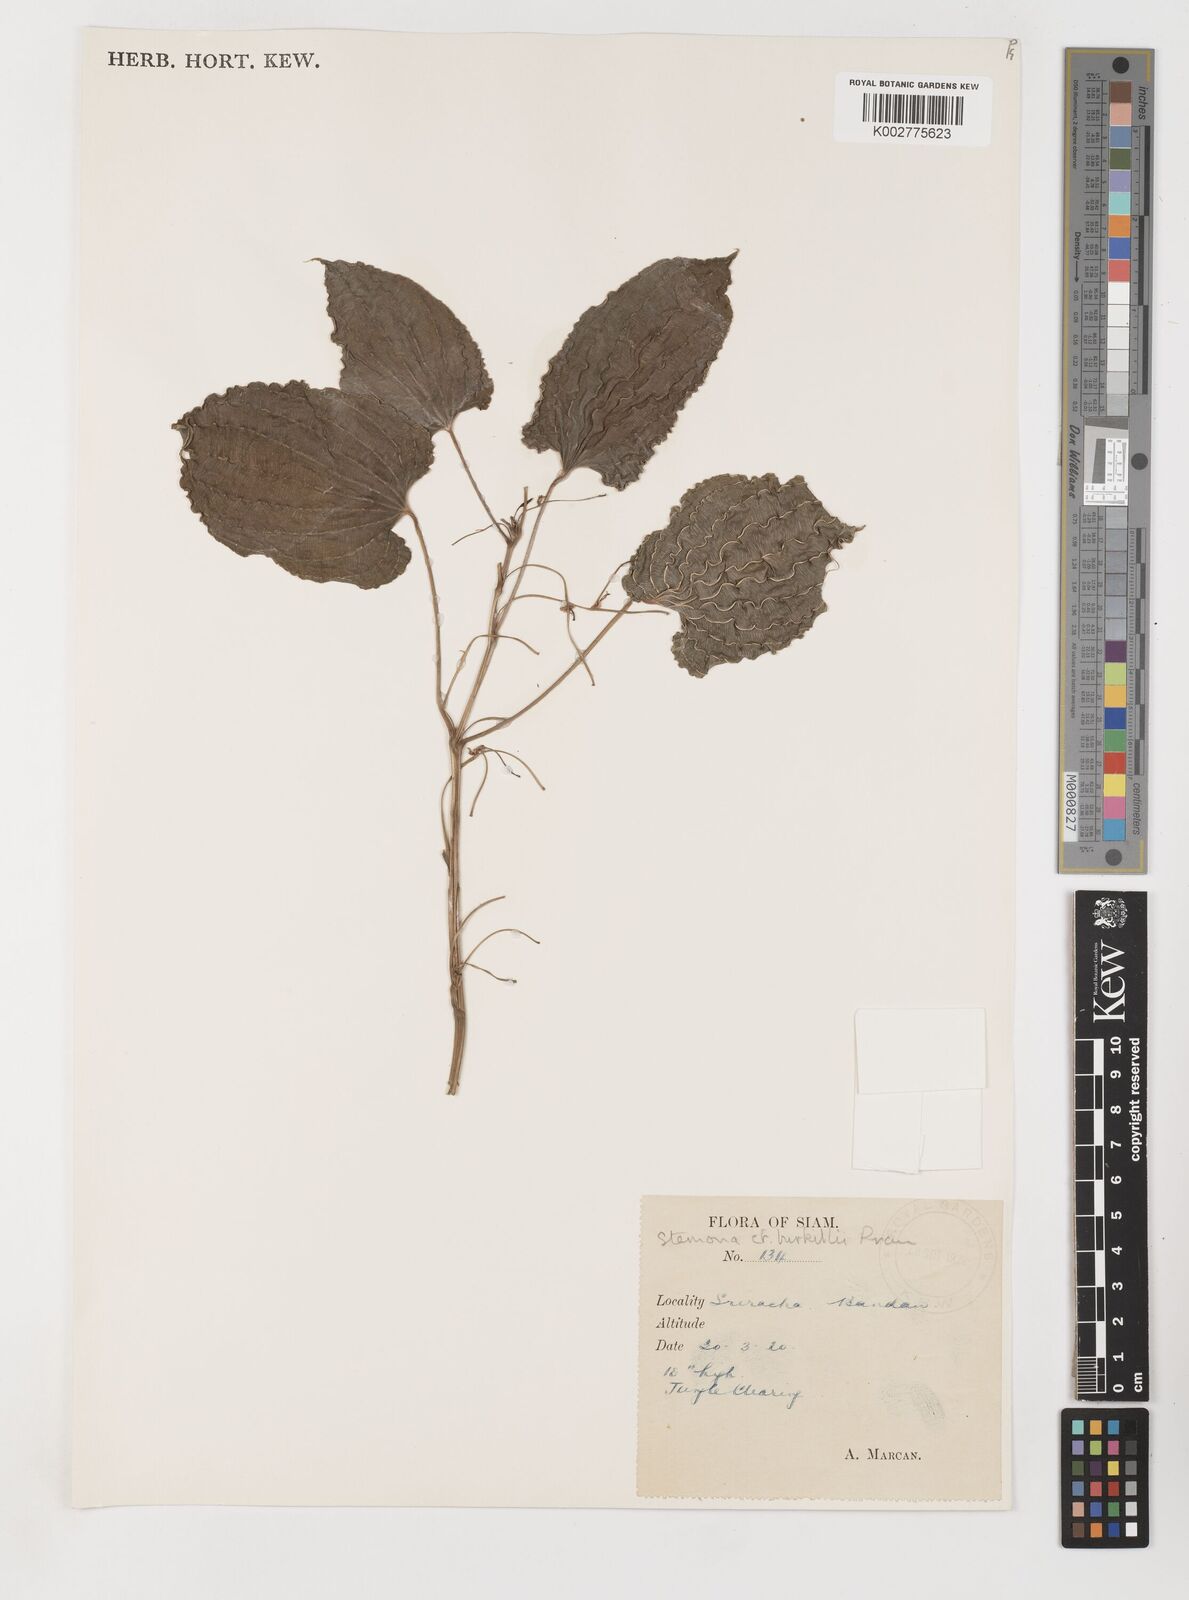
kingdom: Plantae
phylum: Tracheophyta
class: Liliopsida
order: Pandanales
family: Stemonaceae
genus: Stemona
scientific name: Stemona burkillii
